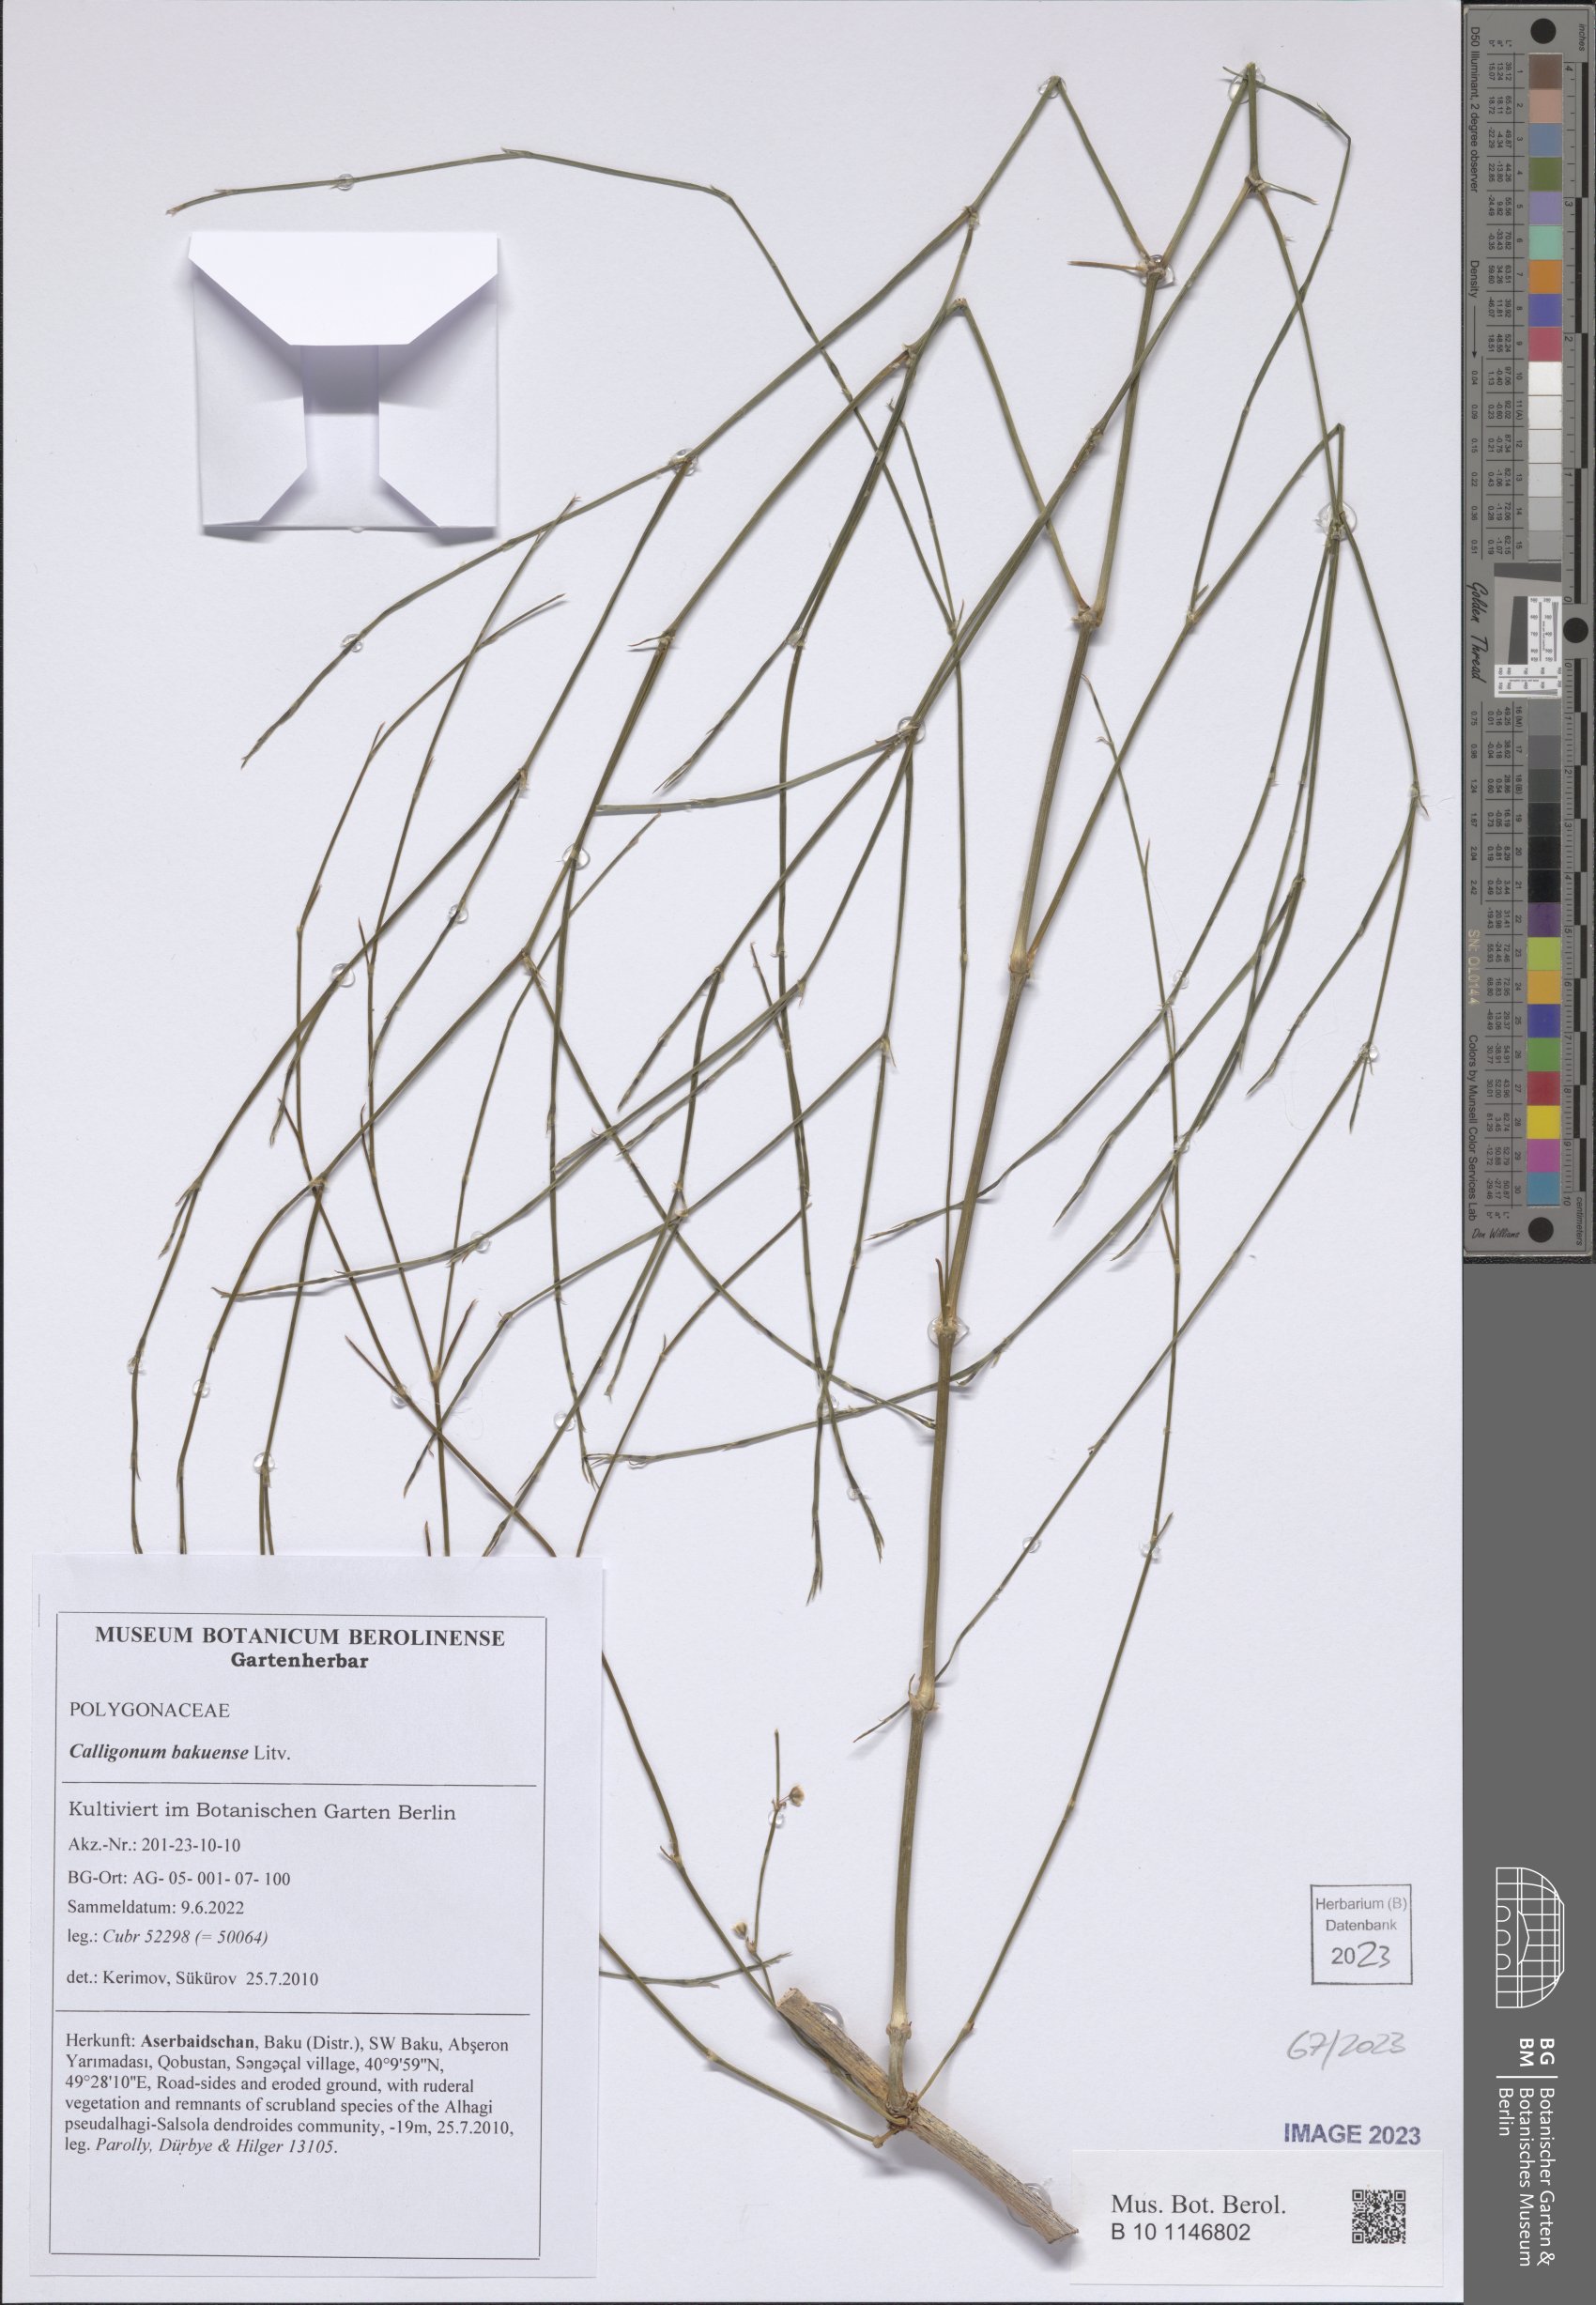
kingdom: Plantae
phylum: Tracheophyta
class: Magnoliopsida
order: Caryophyllales
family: Polygonaceae
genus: Calligonum
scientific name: Calligonum bakuense
